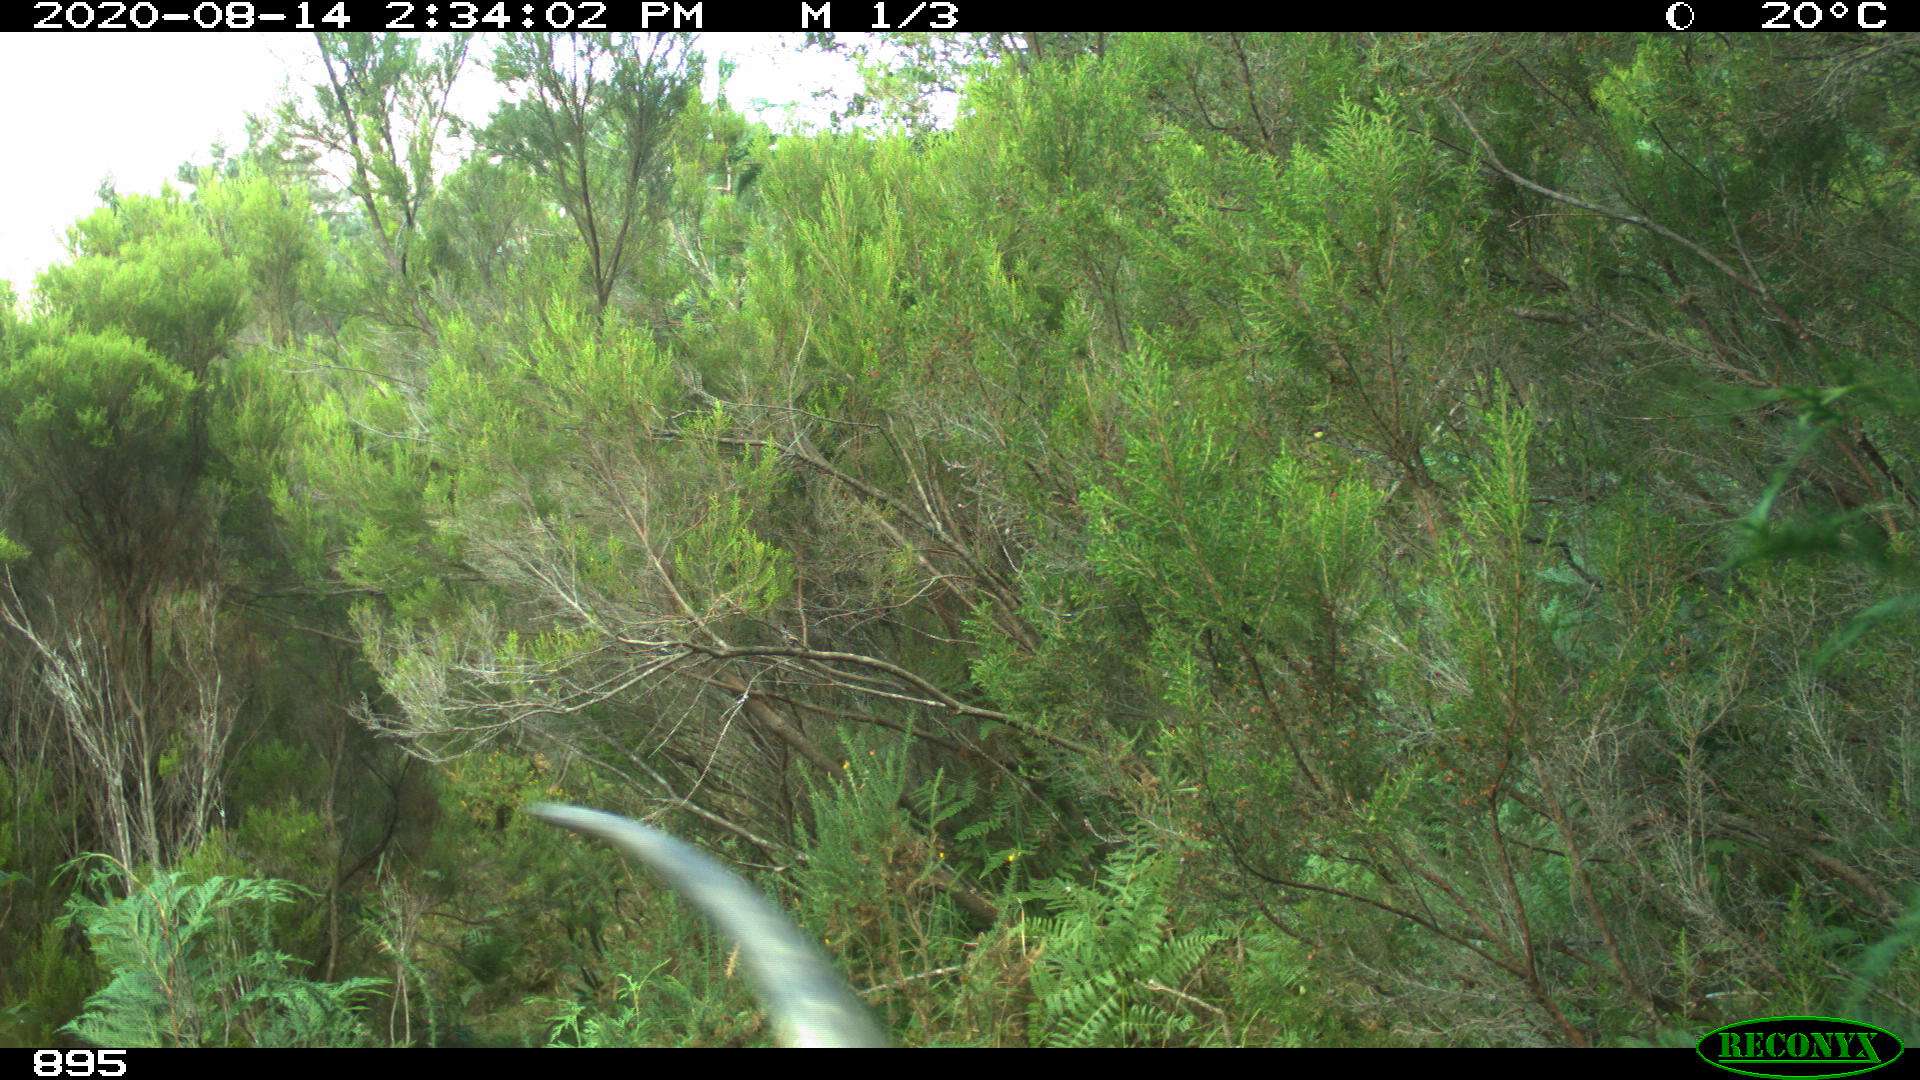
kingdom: Animalia
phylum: Chordata
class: Mammalia
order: Artiodactyla
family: Bovidae
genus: Bos
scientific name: Bos taurus
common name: Domesticated cattle
